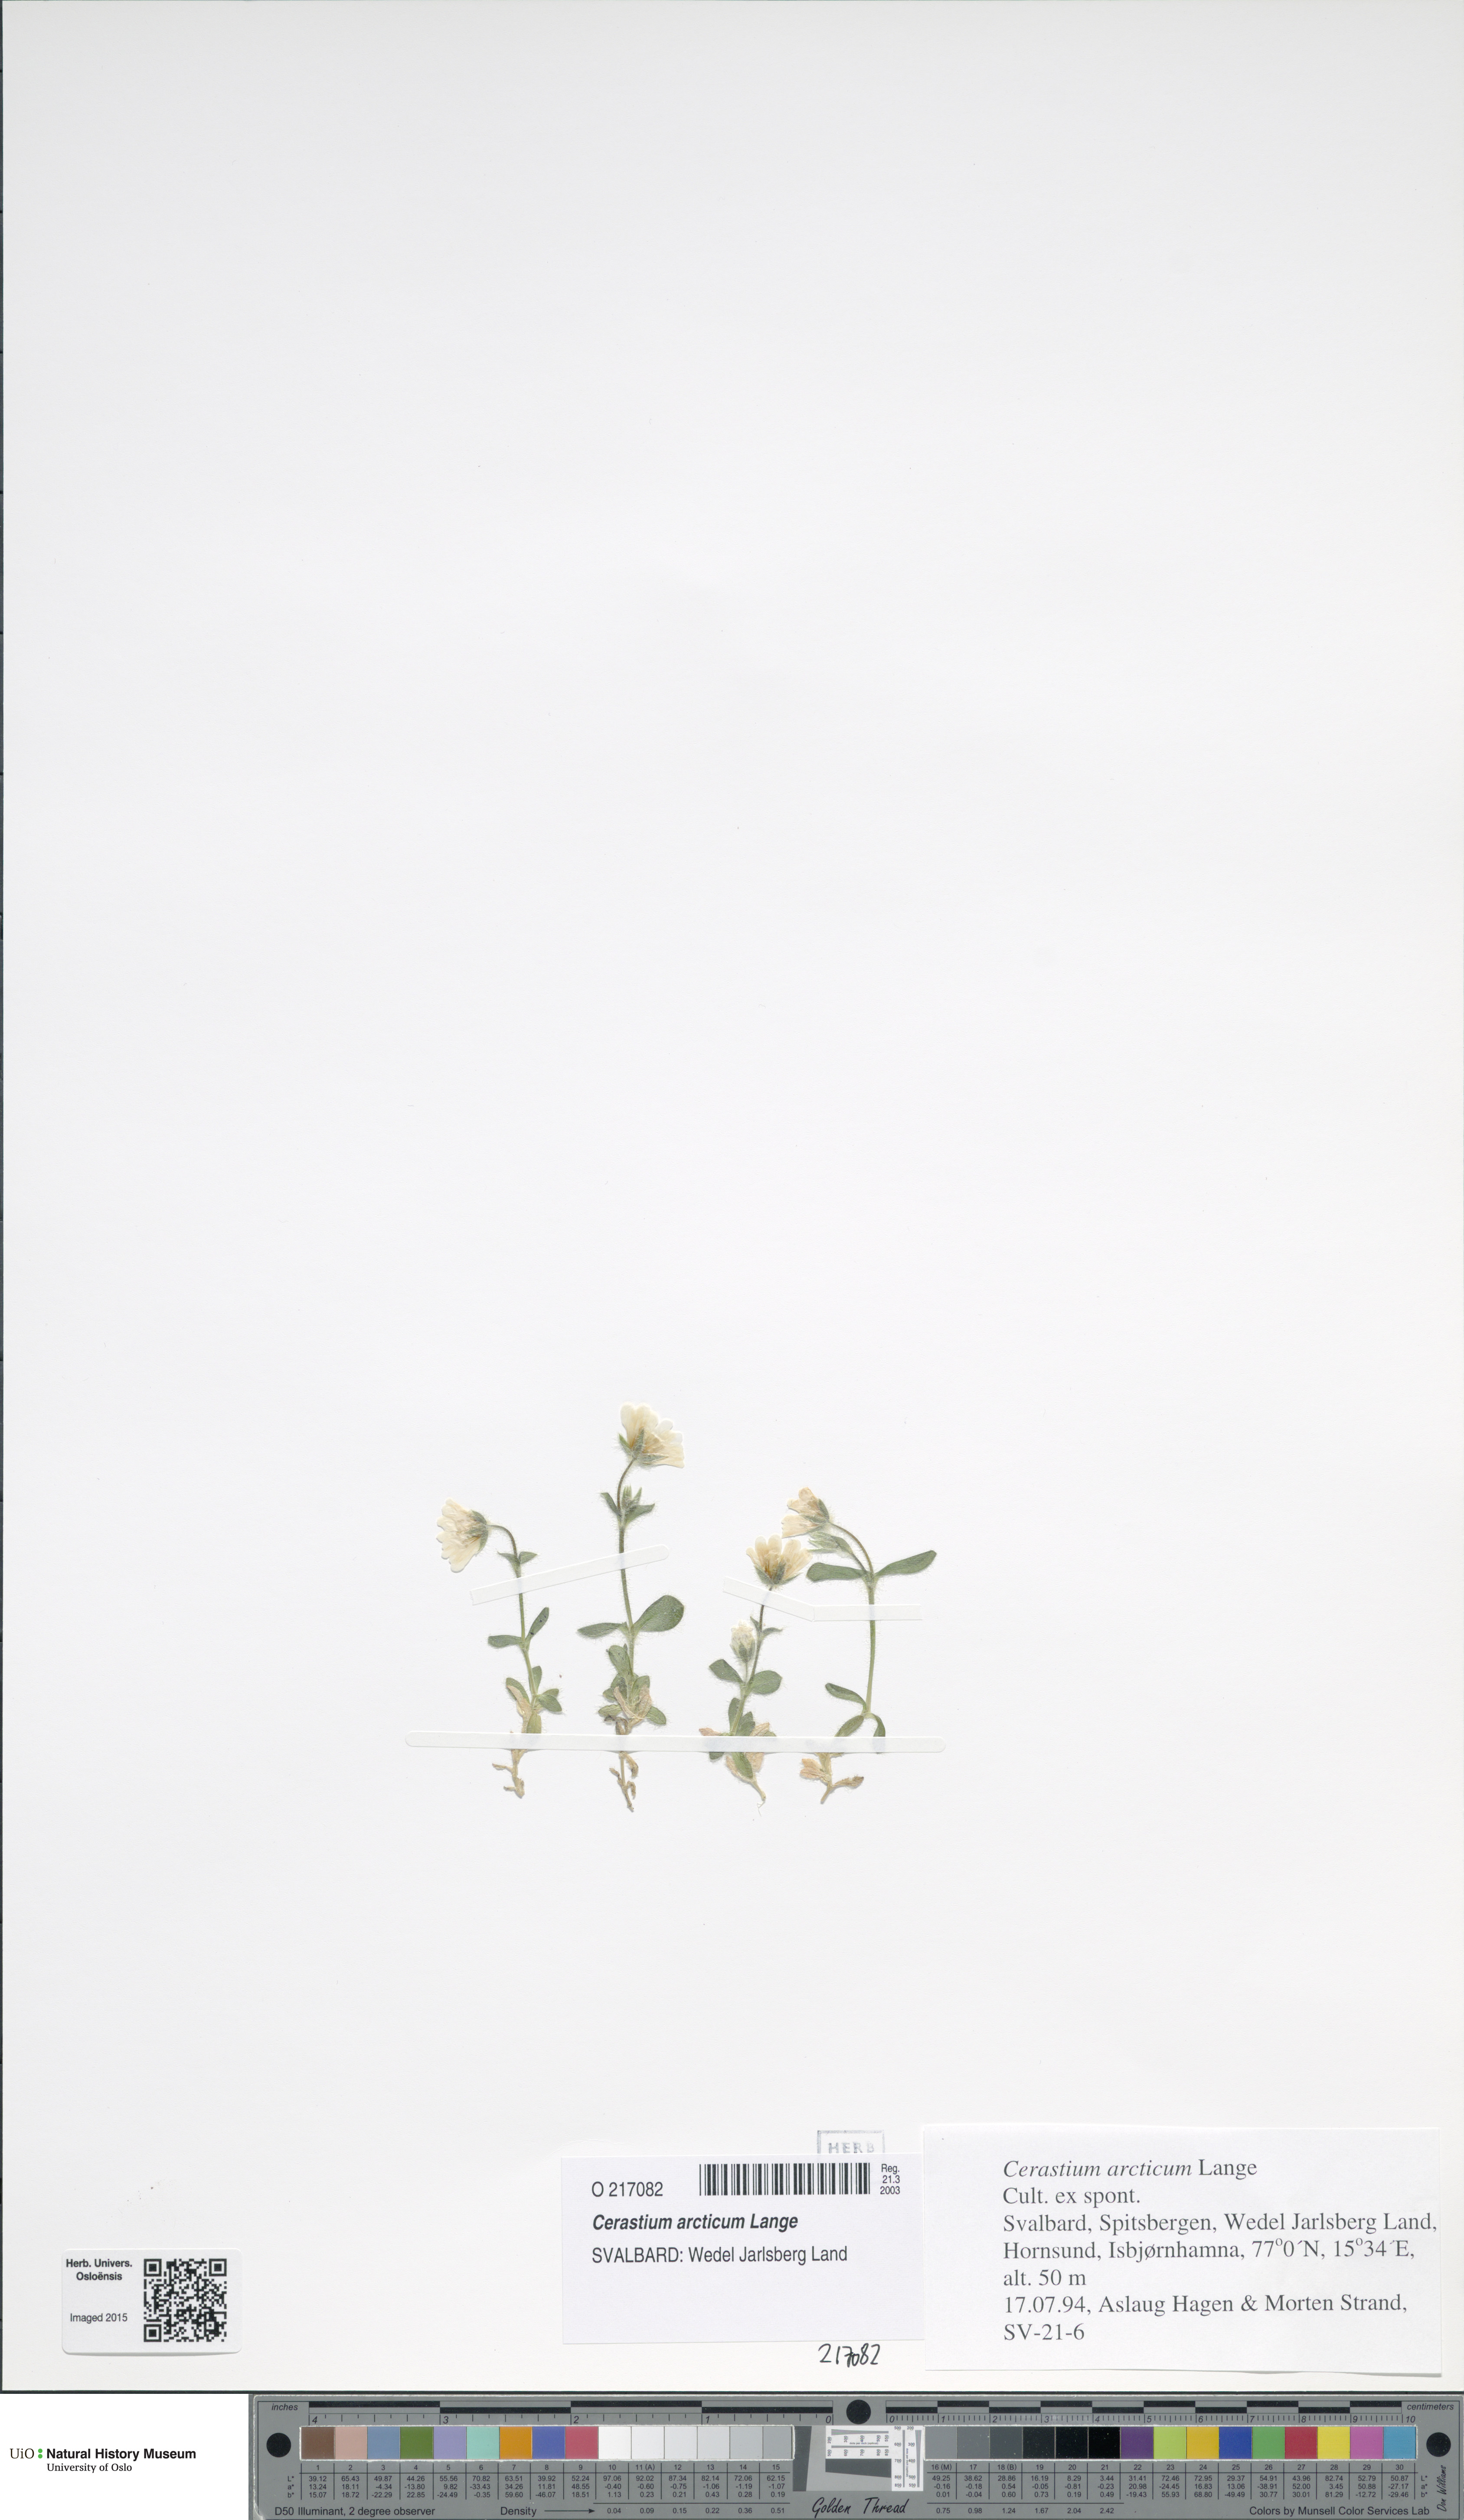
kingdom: Plantae
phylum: Tracheophyta
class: Magnoliopsida
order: Caryophyllales
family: Caryophyllaceae
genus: Cerastium
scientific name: Cerastium arcticum
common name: Arctic mouse-ear
